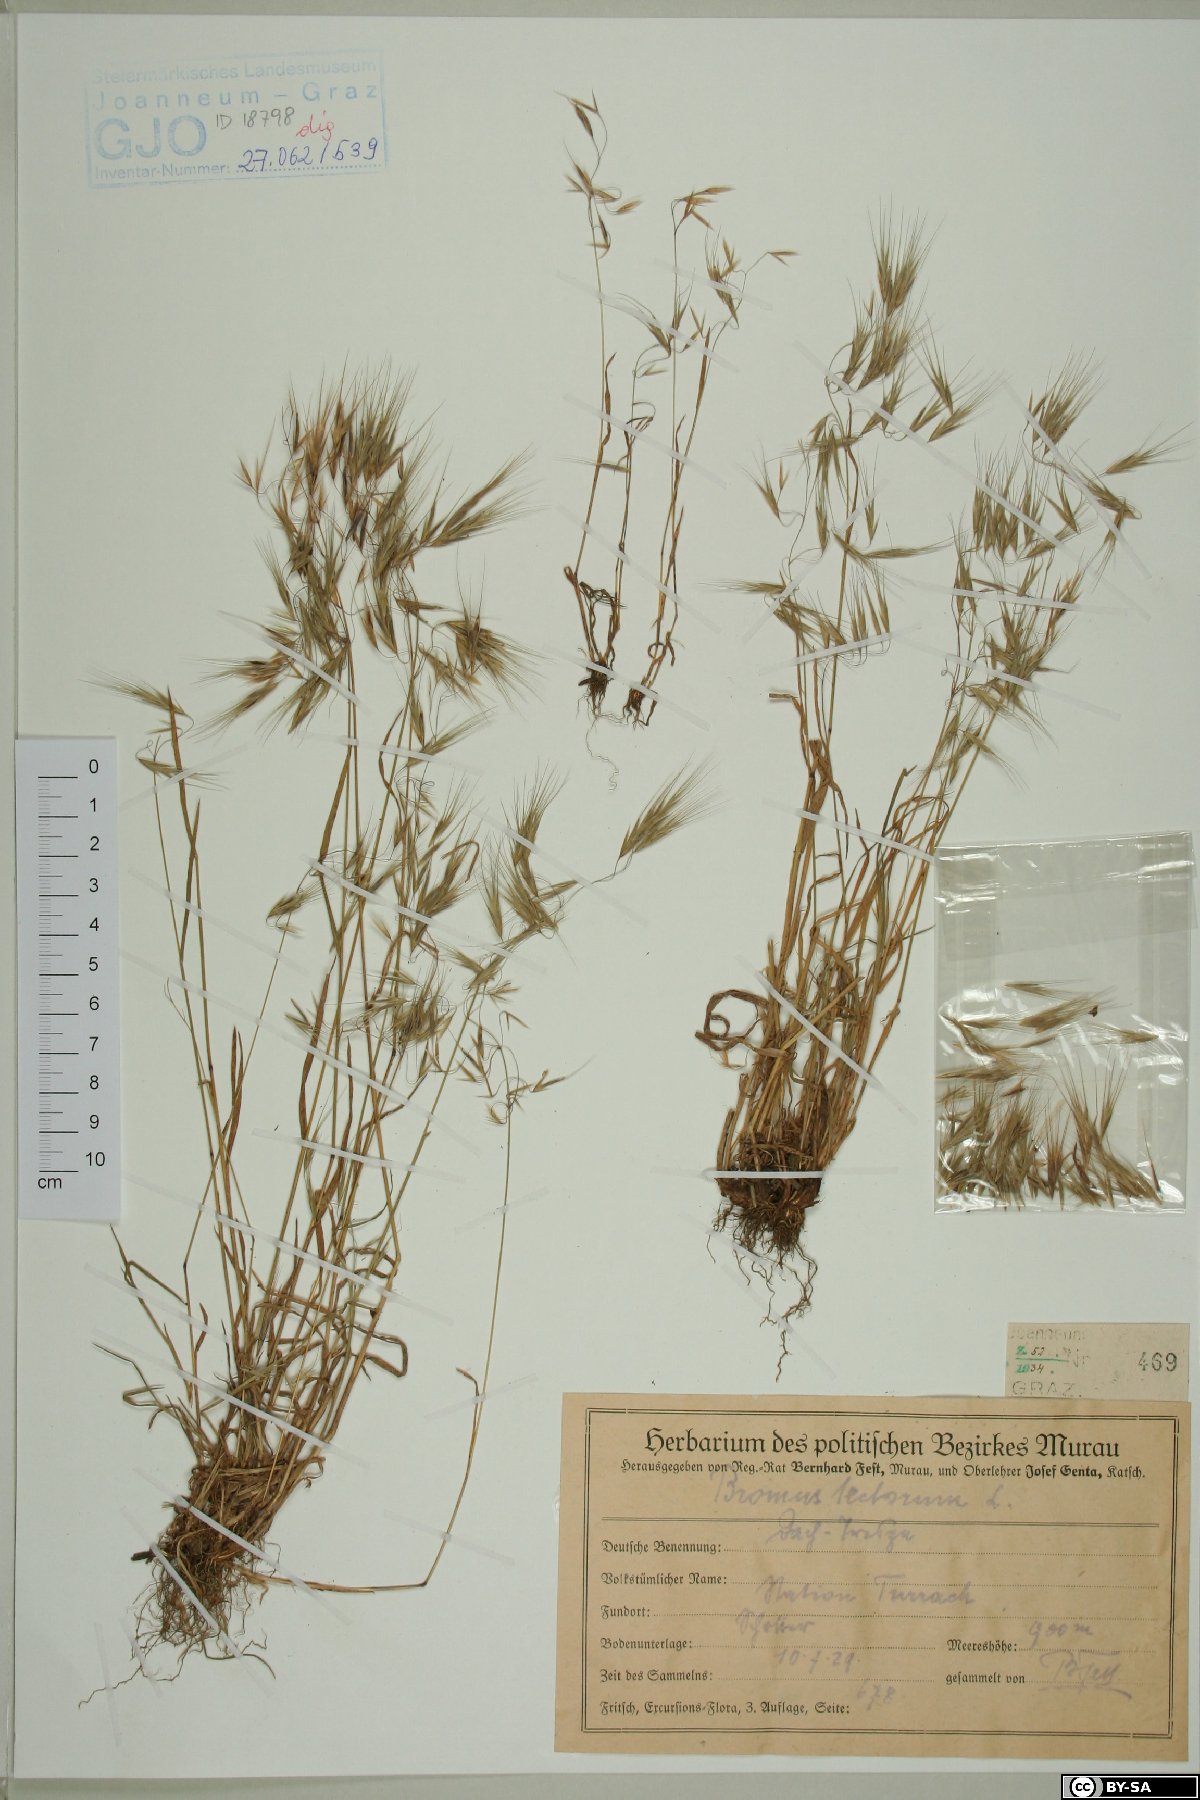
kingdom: Plantae
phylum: Tracheophyta
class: Liliopsida
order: Poales
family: Poaceae
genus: Bromus
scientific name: Bromus tectorum
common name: Cheatgrass
